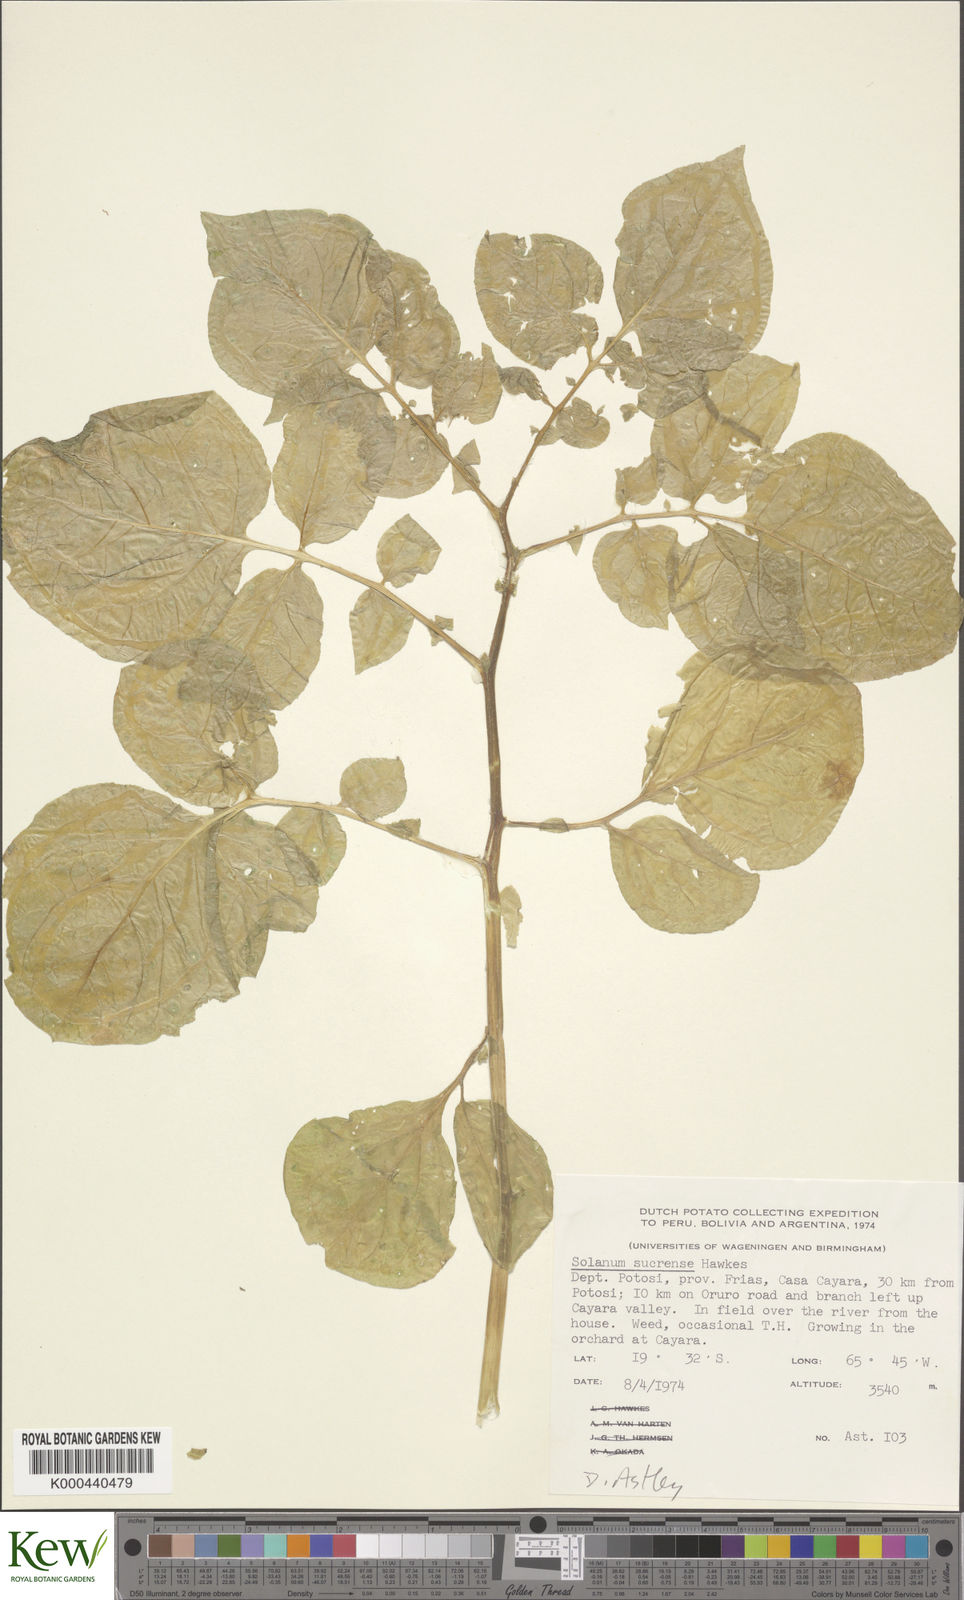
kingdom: Plantae
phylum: Tracheophyta
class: Magnoliopsida
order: Solanales
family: Solanaceae
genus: Solanum
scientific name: Solanum brevicaule
